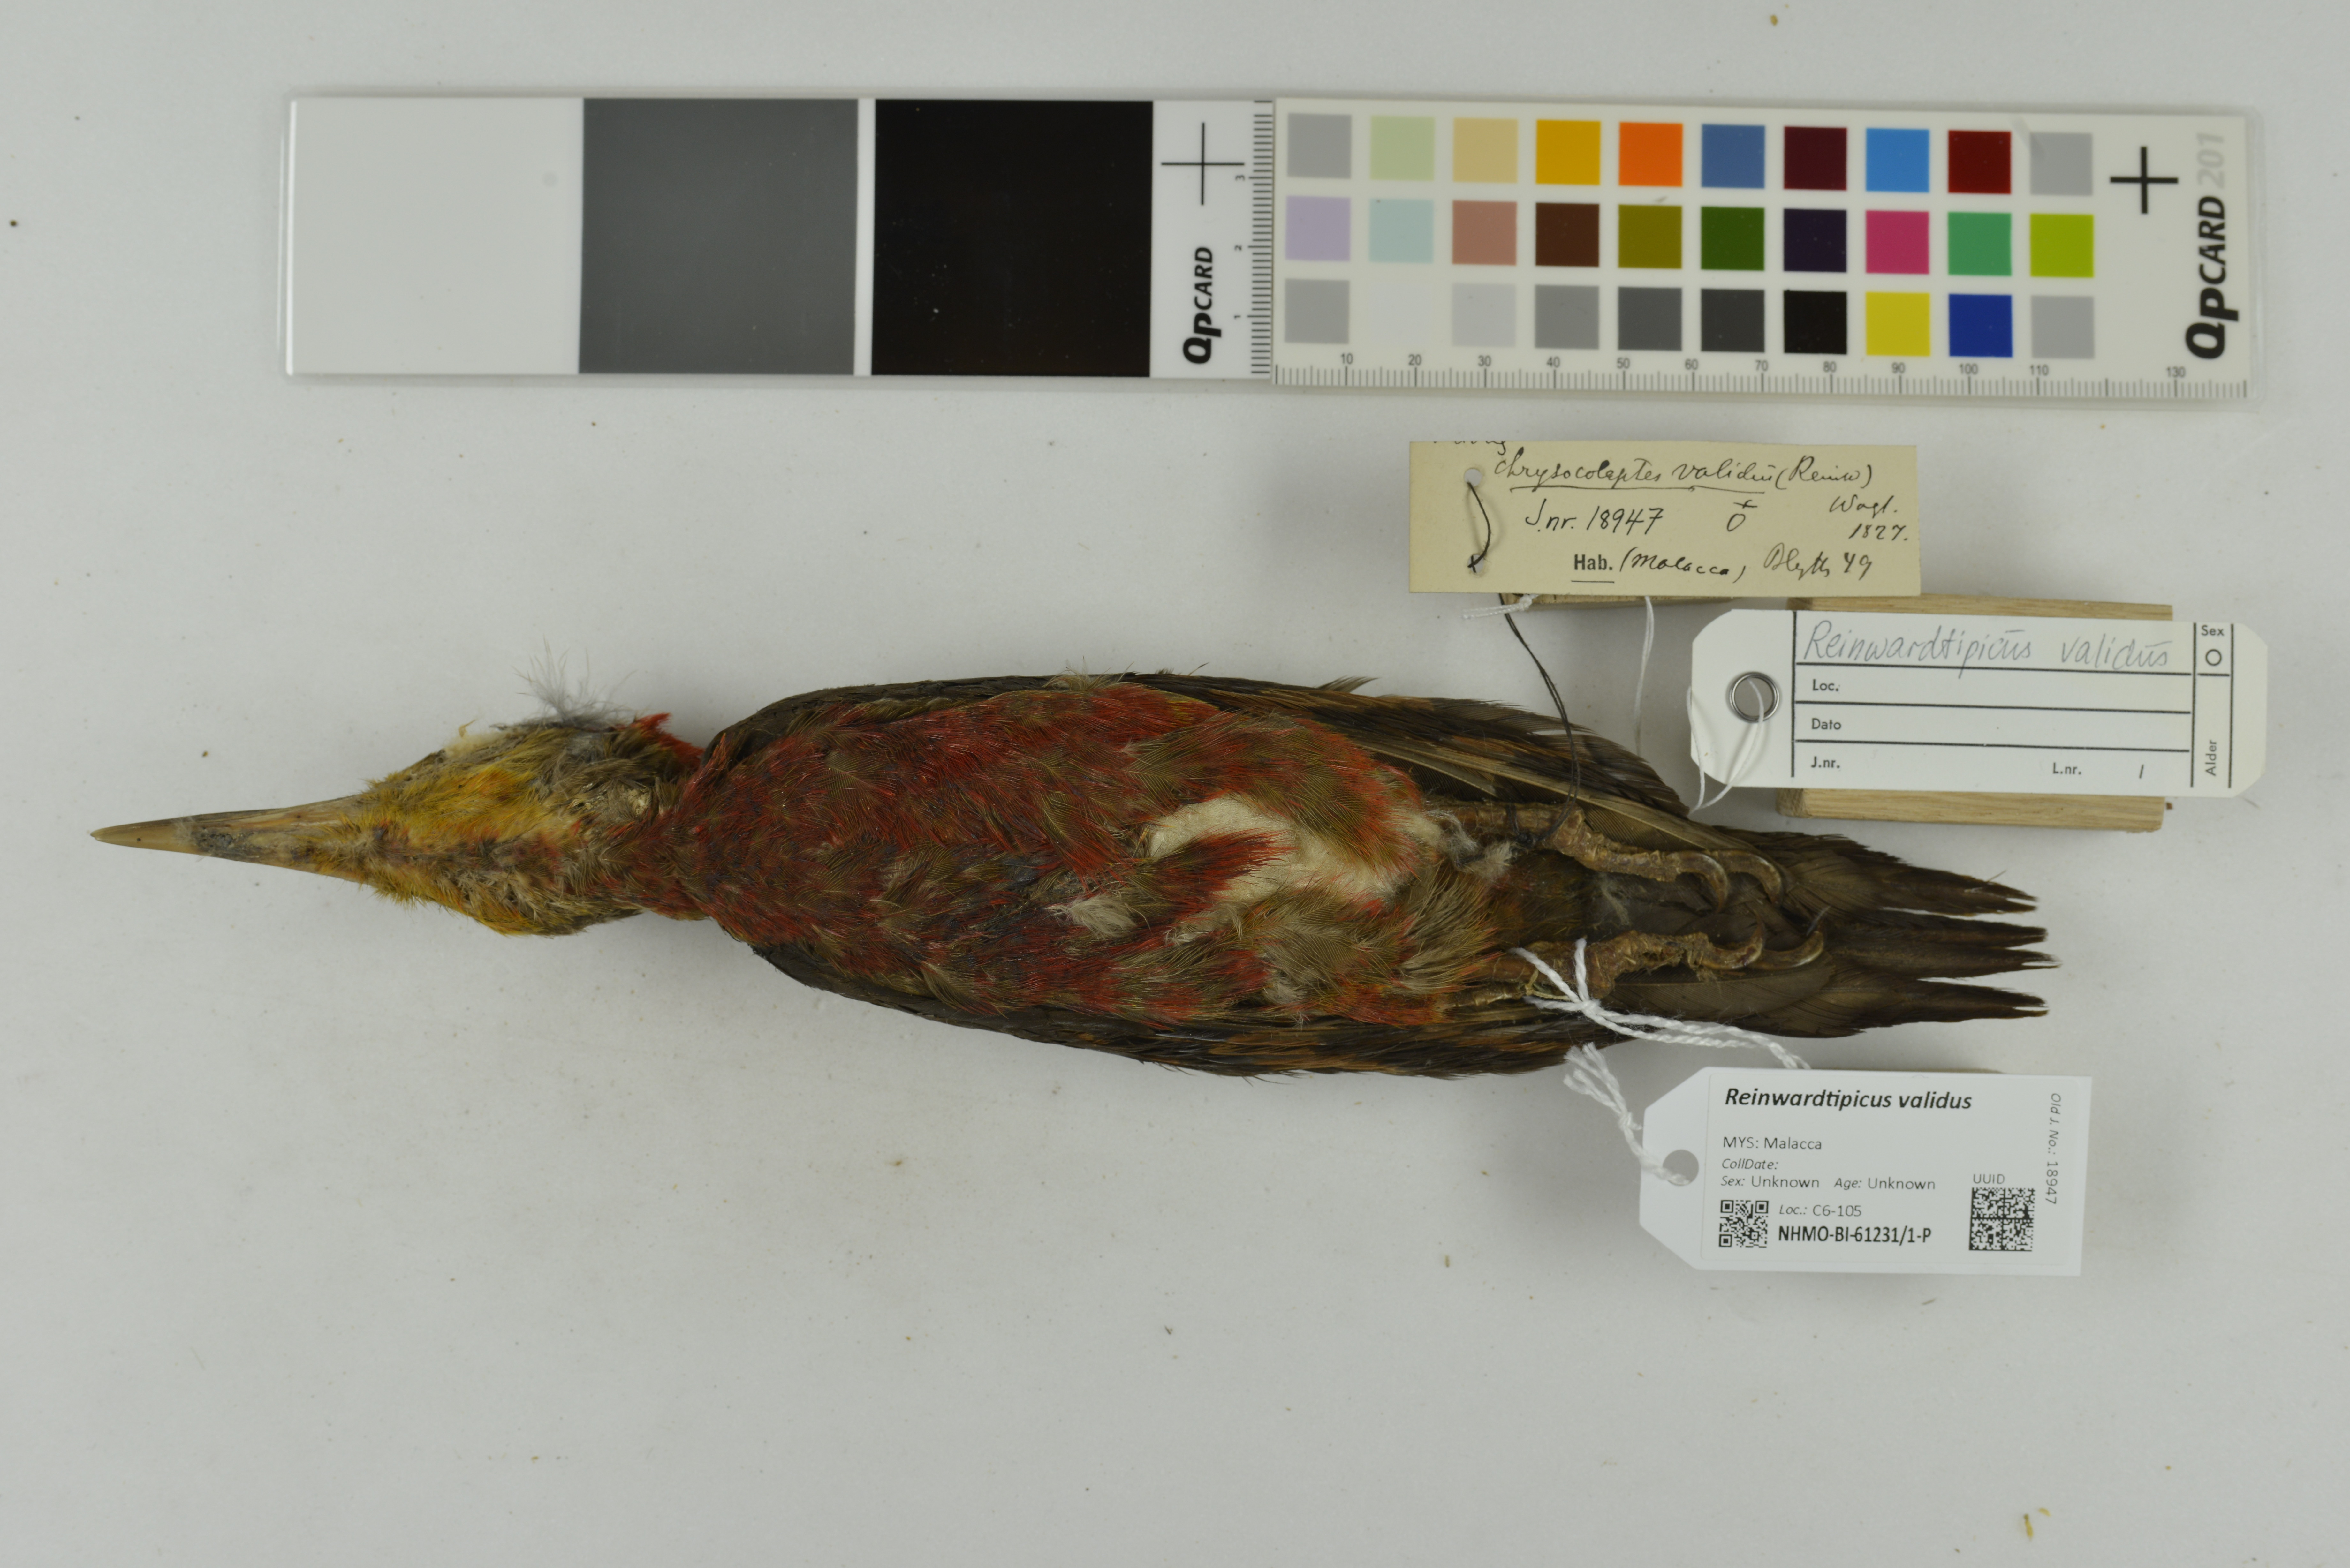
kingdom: Animalia
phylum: Chordata
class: Aves
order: Piciformes
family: Picidae
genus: Reinwardtipicus
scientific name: Reinwardtipicus validus
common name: Orange-backed woodpecker
